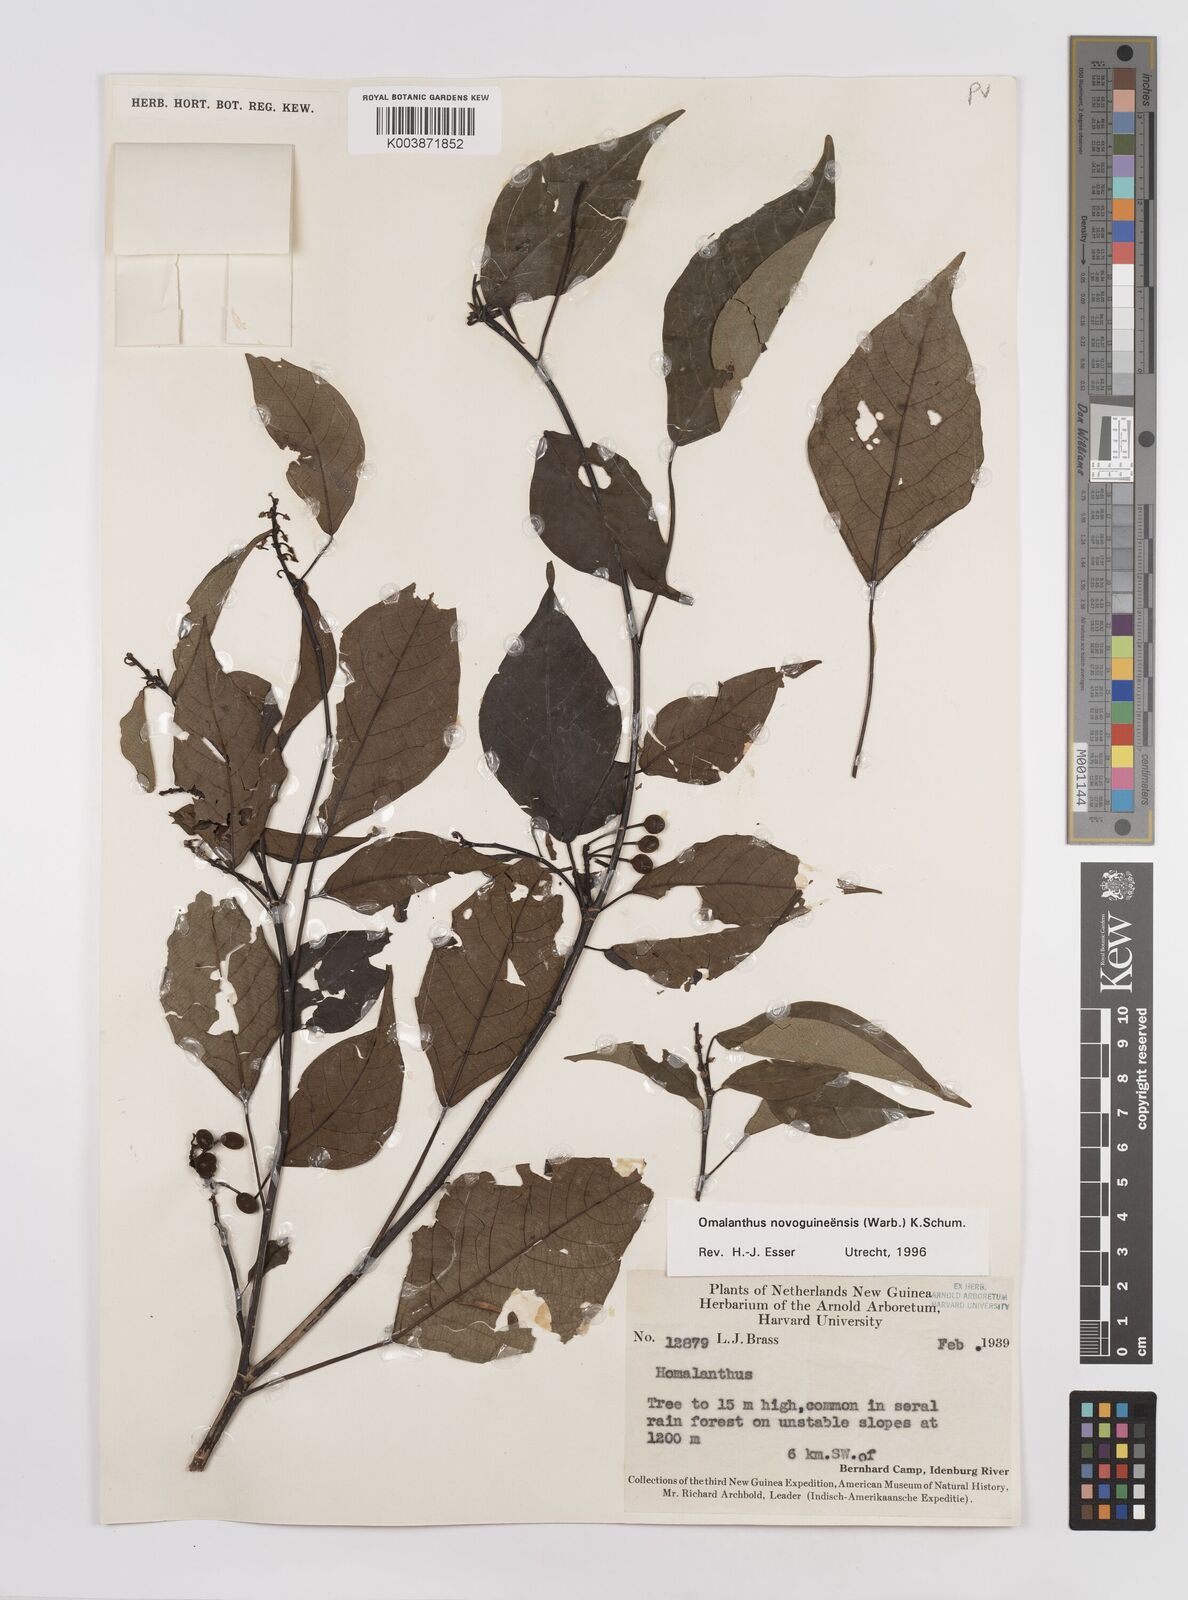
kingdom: Plantae
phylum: Tracheophyta
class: Magnoliopsida
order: Malpighiales
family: Euphorbiaceae
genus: Homalanthus
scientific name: Homalanthus novoguineensis
